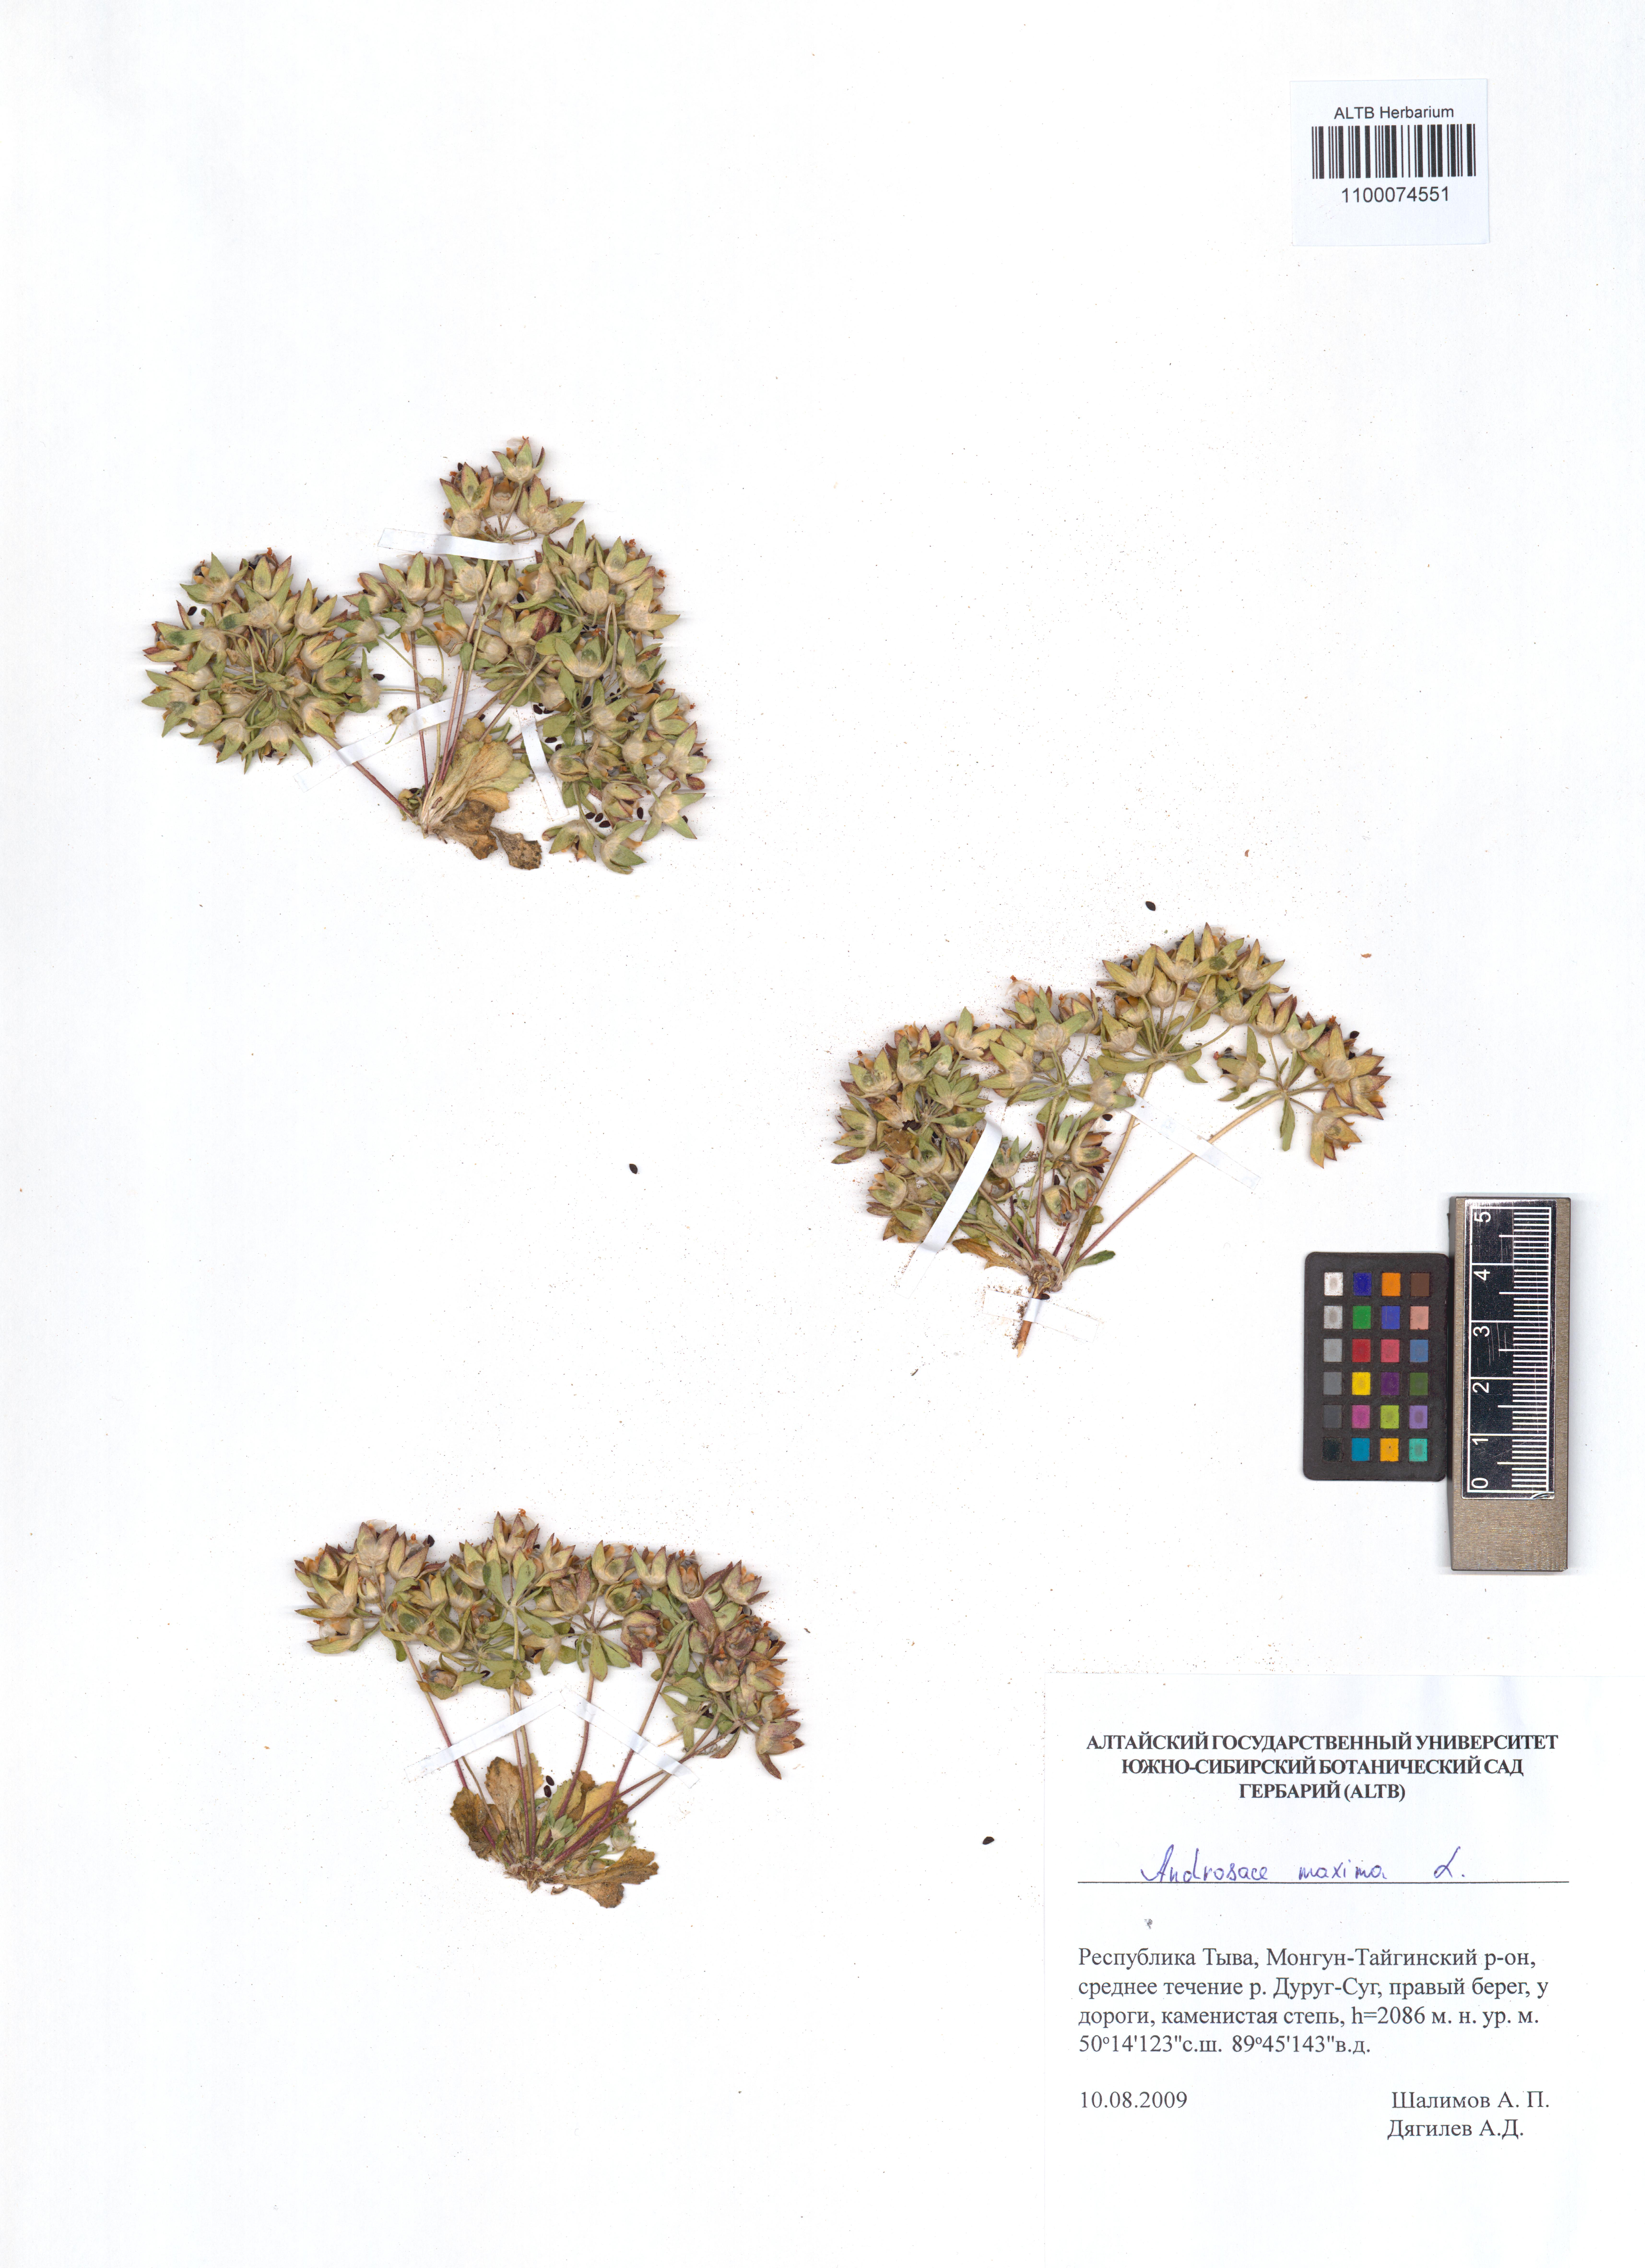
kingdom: Plantae
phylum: Tracheophyta
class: Magnoliopsida
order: Ericales
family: Primulaceae
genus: Androsace
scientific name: Androsace maxima
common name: Annual androsace
